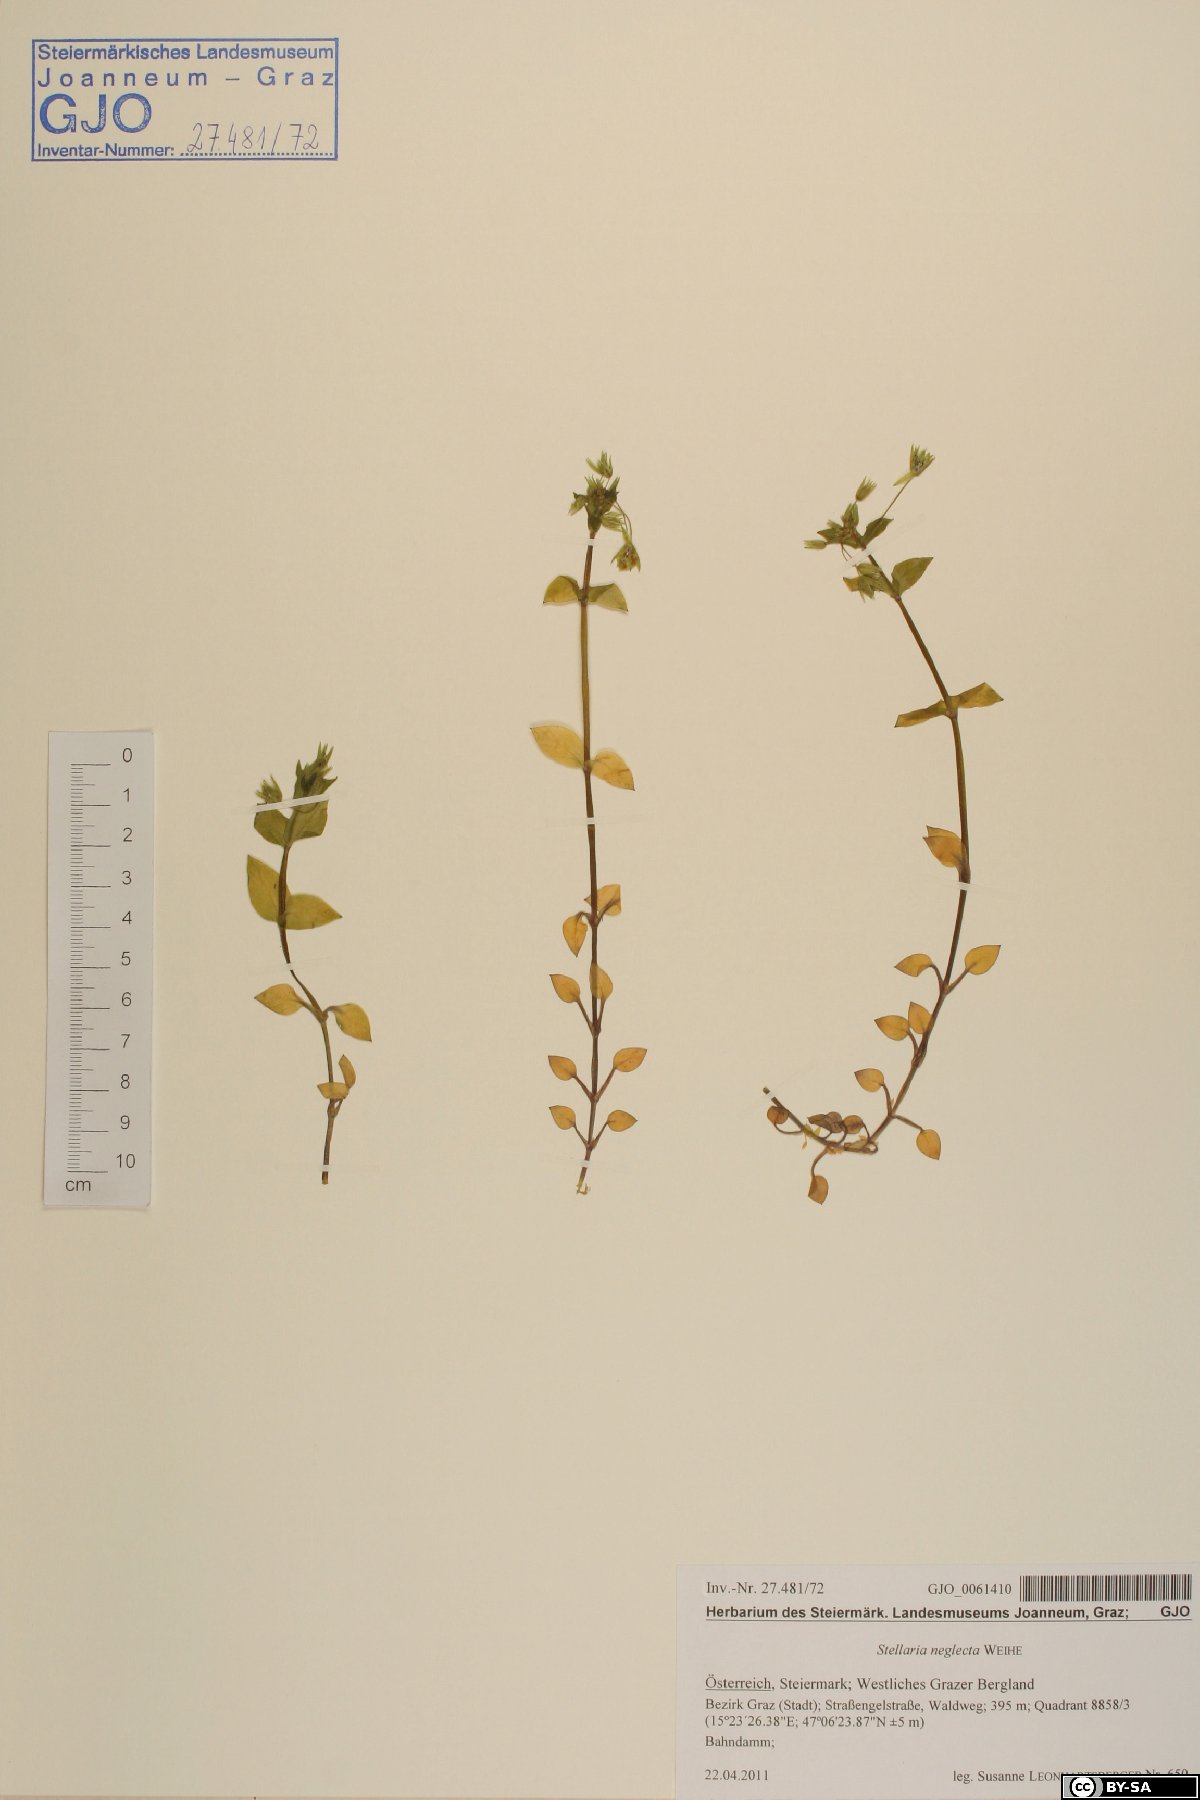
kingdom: Plantae
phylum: Tracheophyta
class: Magnoliopsida
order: Caryophyllales
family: Caryophyllaceae
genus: Stellaria
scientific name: Stellaria neglecta
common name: Greater chickweed
